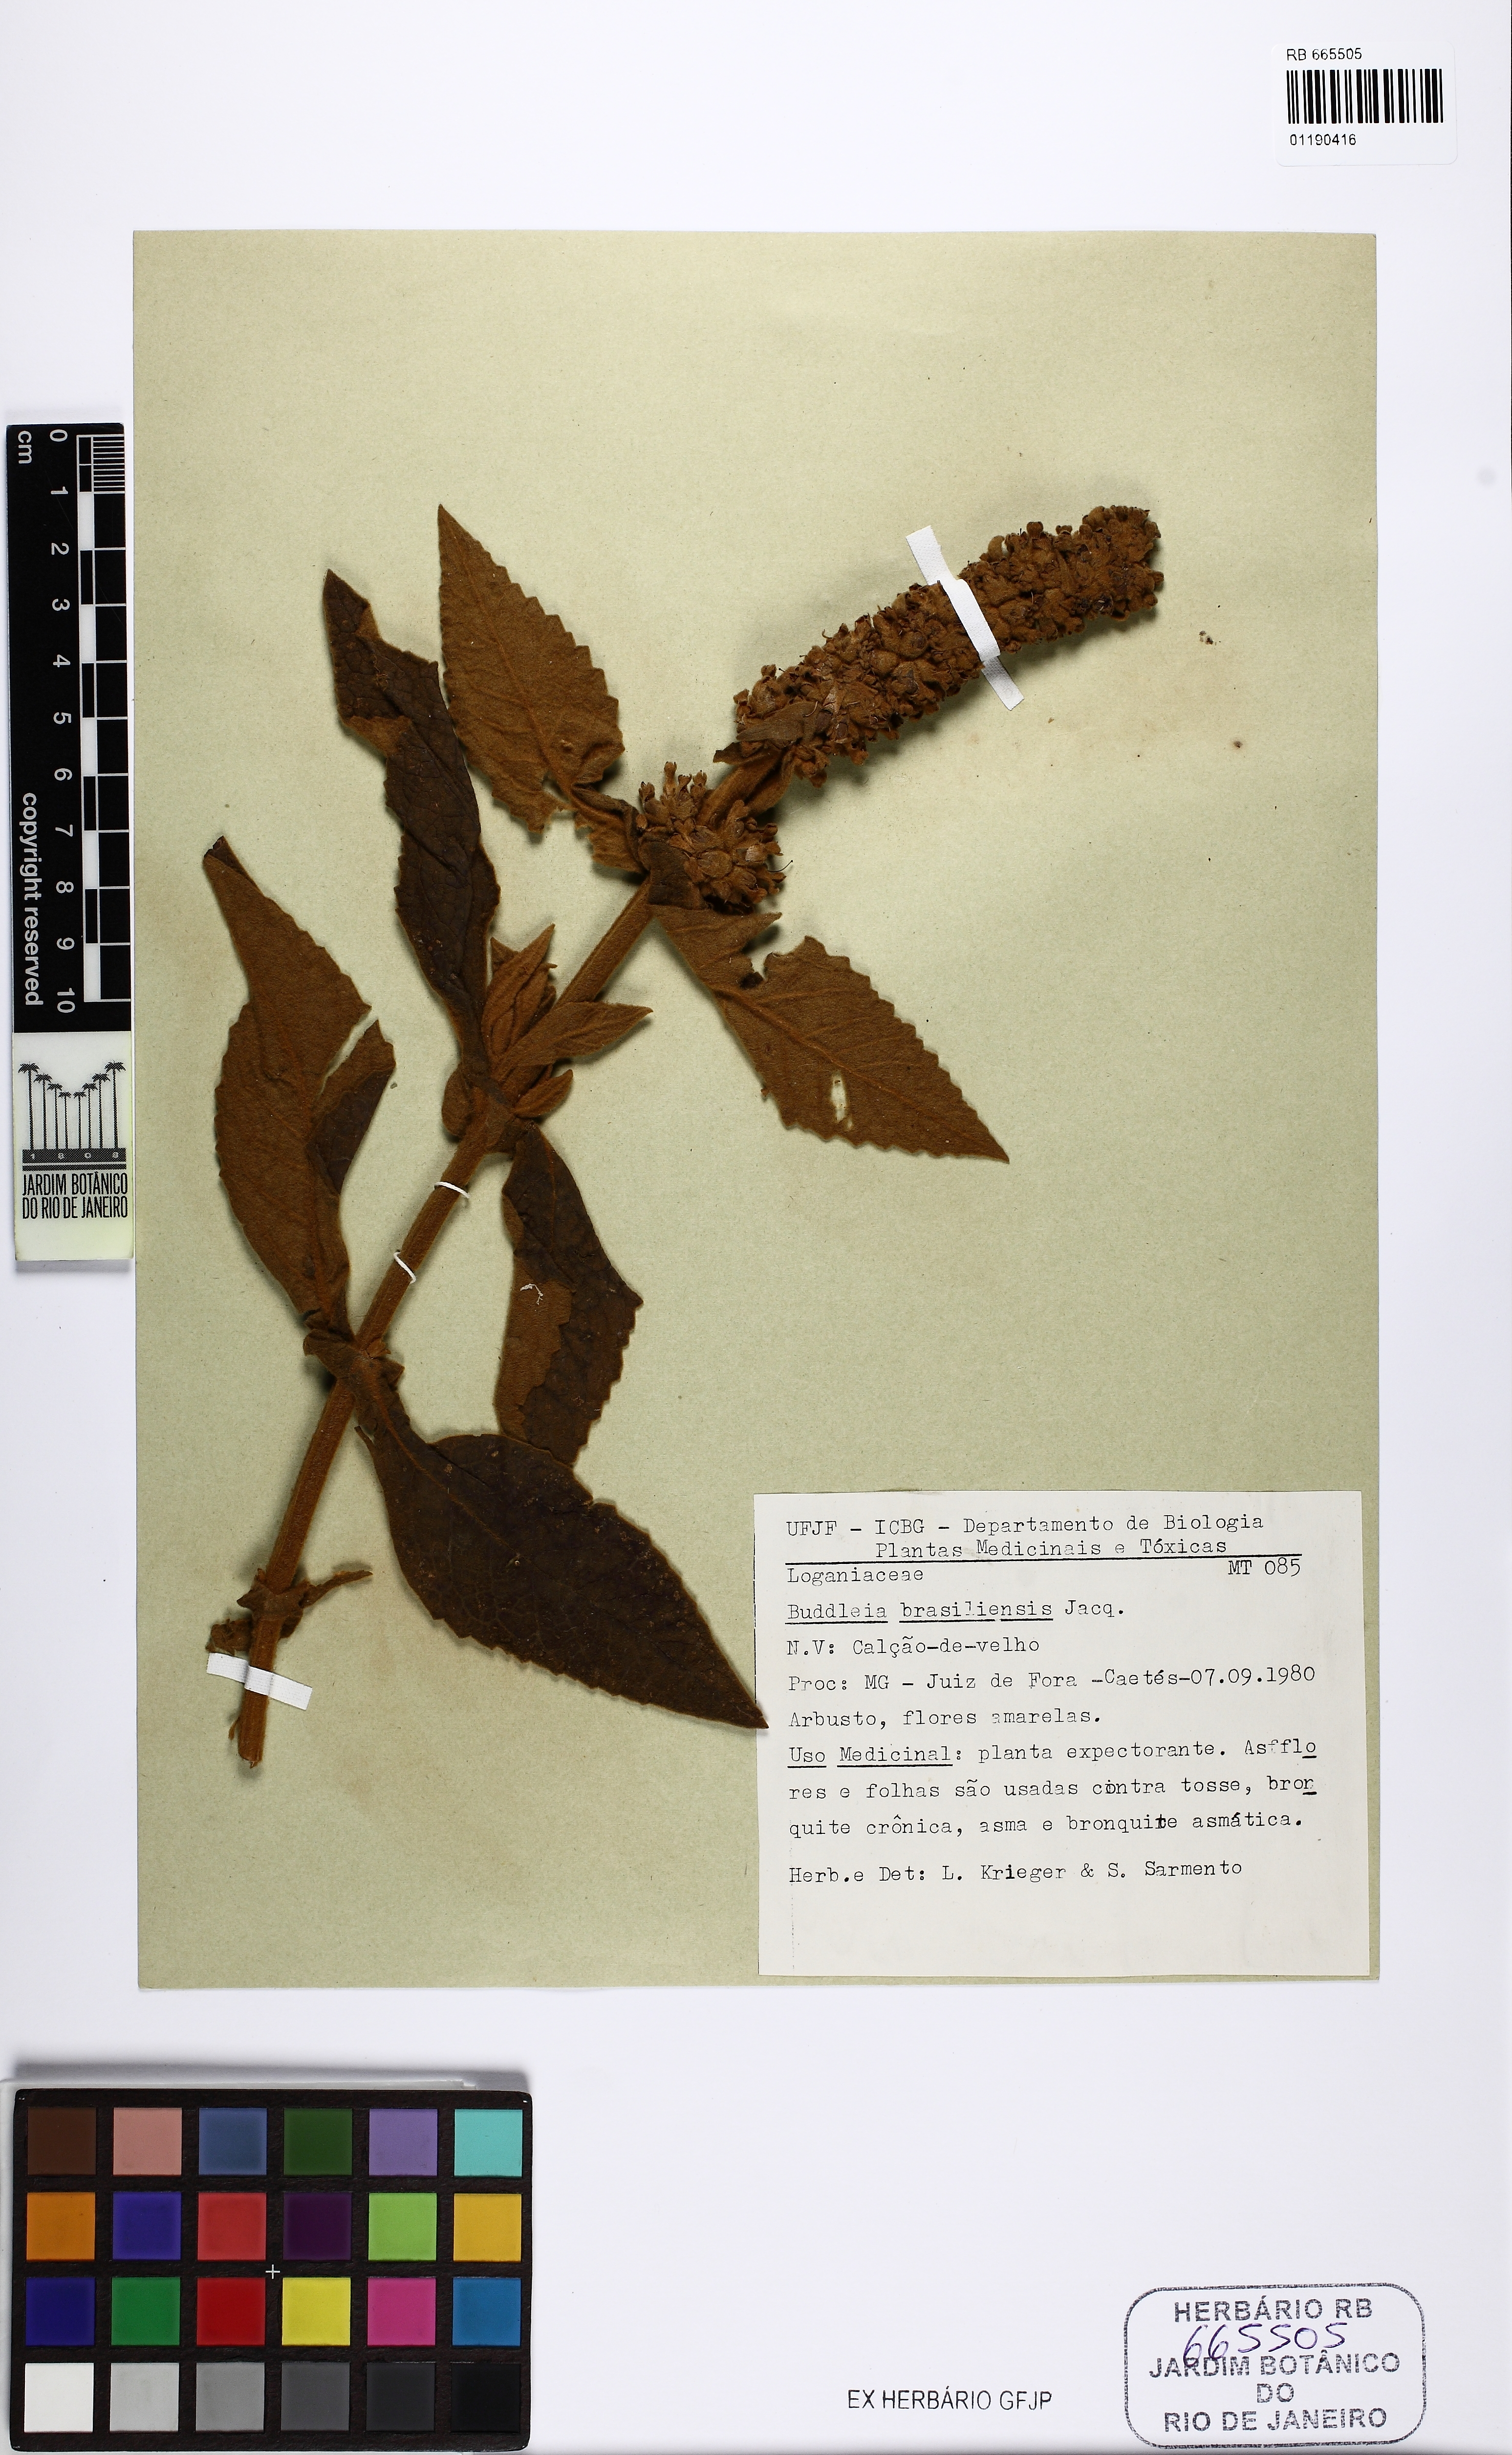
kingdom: Plantae
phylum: Tracheophyta
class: Magnoliopsida
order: Lamiales
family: Scrophulariaceae
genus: Buddleja
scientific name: Buddleja stachyoides
